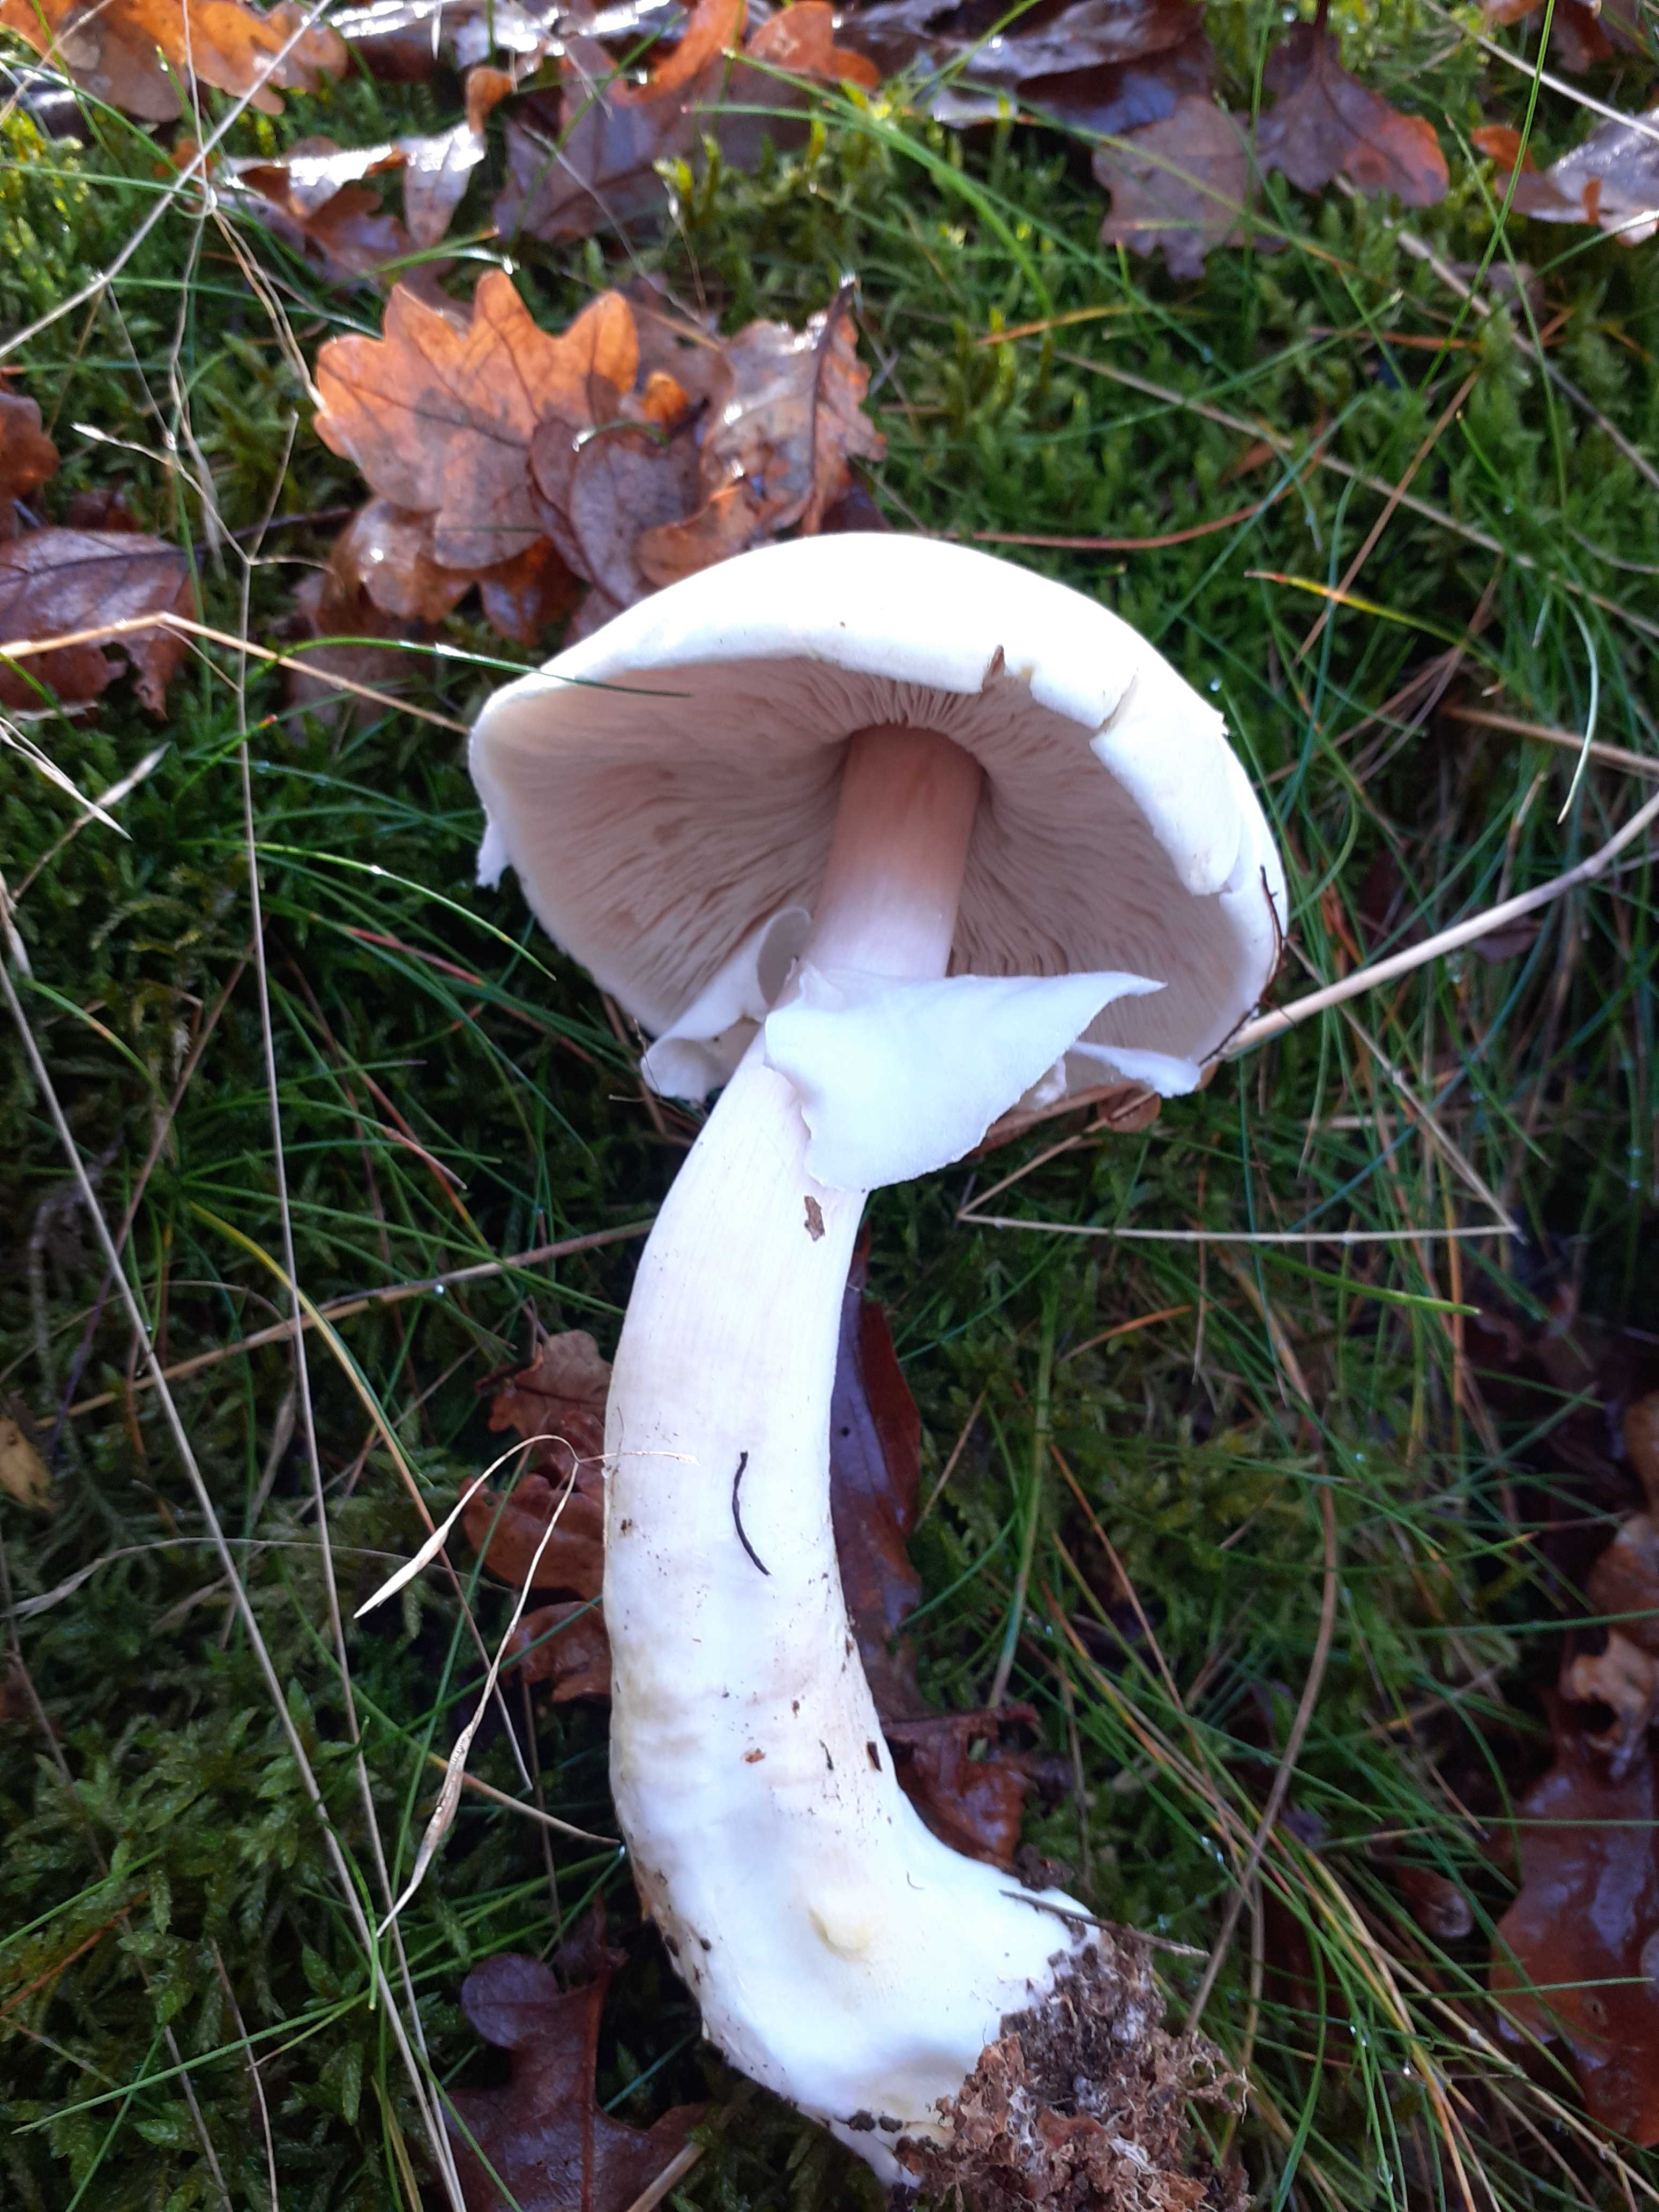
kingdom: Fungi
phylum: Basidiomycota
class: Agaricomycetes
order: Agaricales
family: Agaricaceae
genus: Agaricus
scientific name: Agaricus sylvicola
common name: gulhvid champignon
